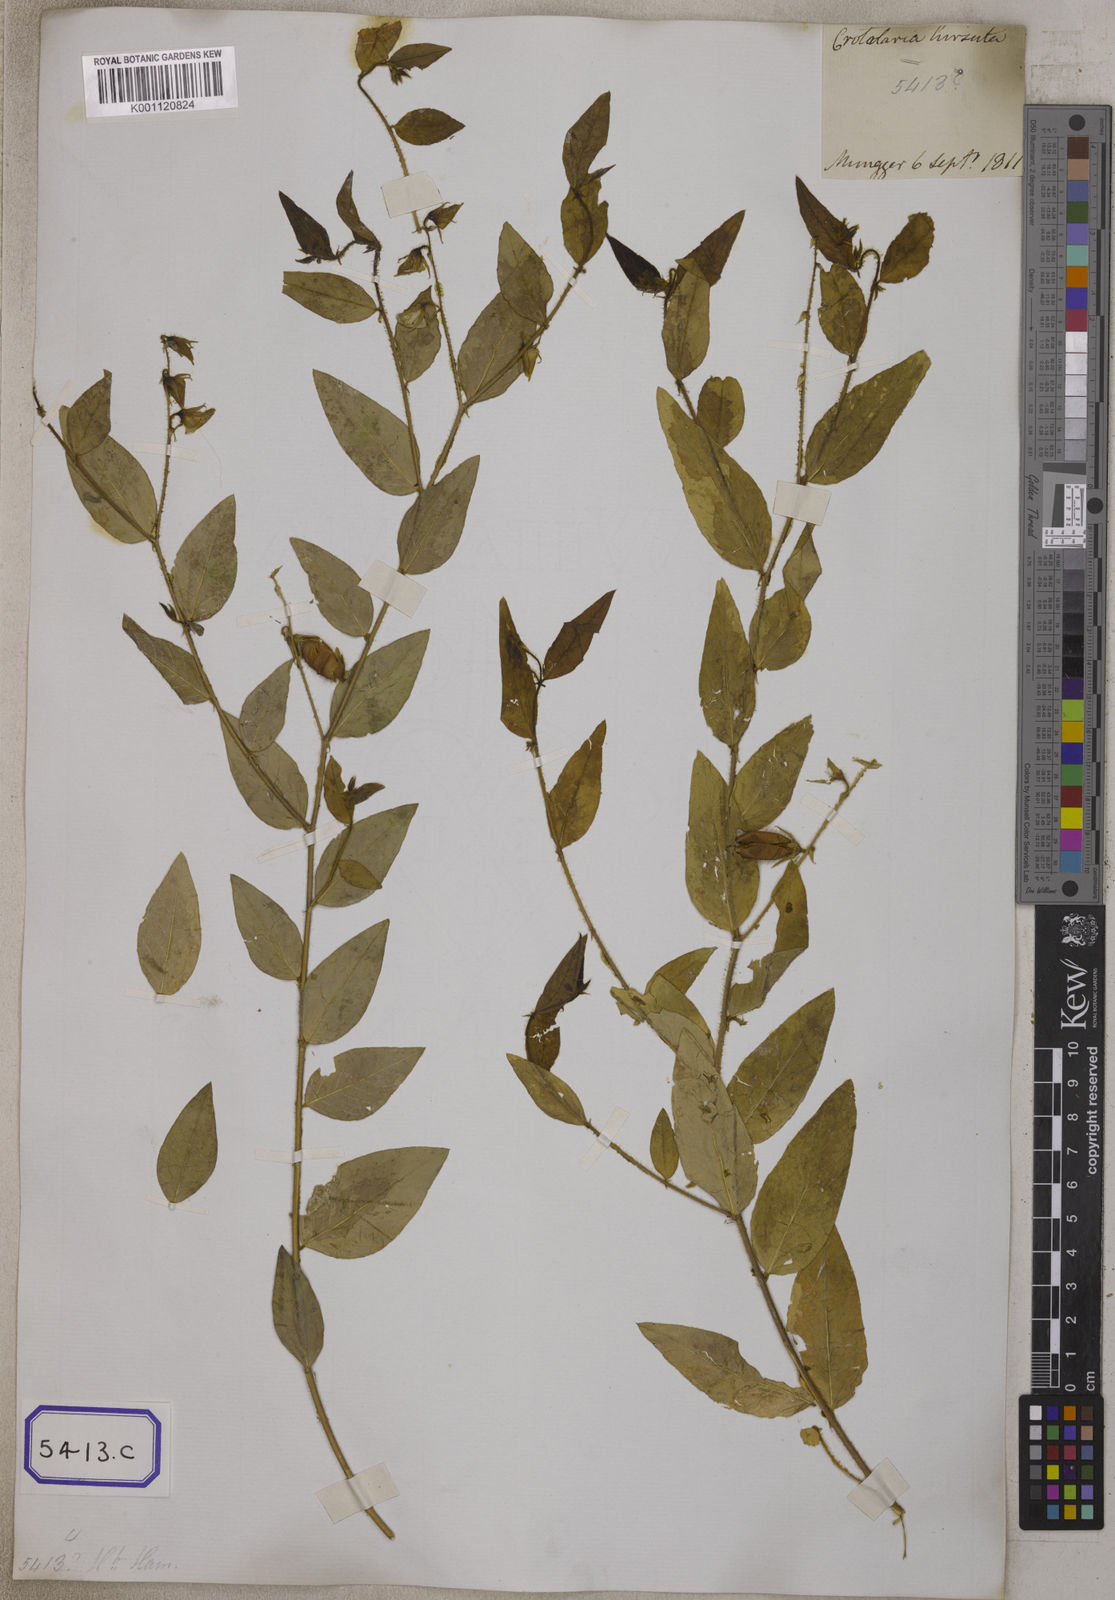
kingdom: Plantae
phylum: Tracheophyta
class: Magnoliopsida
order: Fabales
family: Fabaceae
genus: Crotalaria
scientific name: Crotalaria
